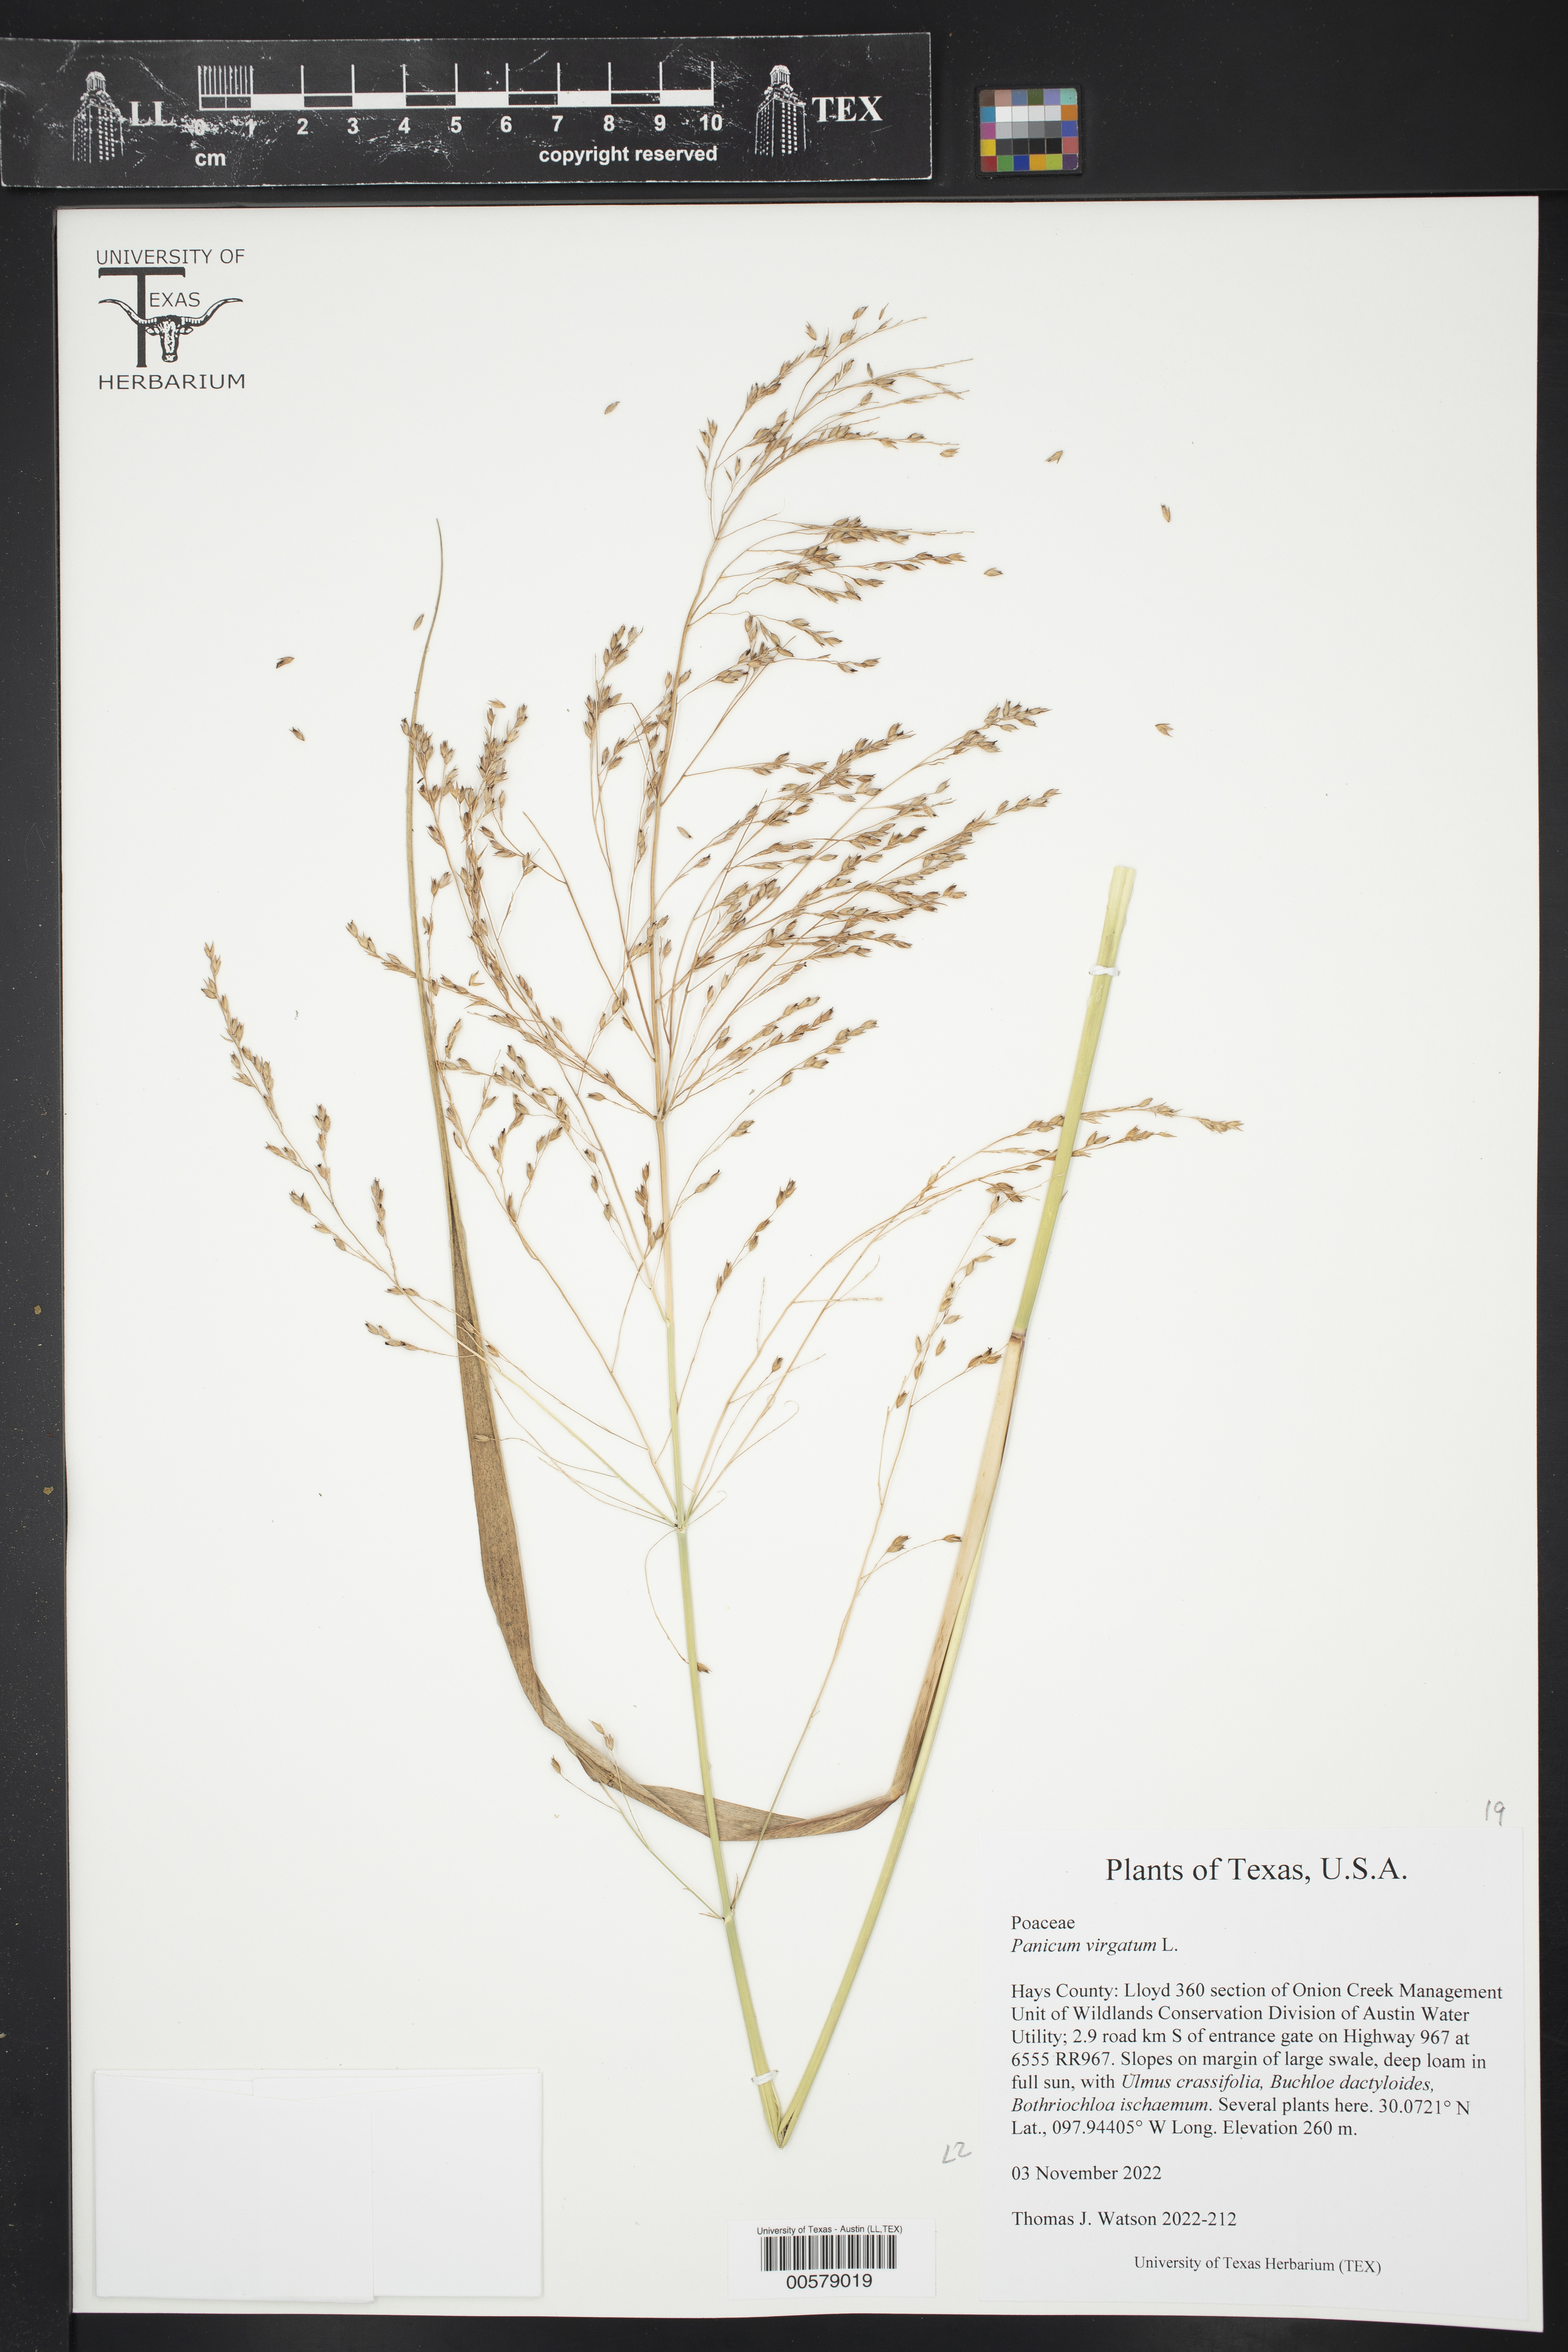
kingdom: Plantae
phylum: Tracheophyta
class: Liliopsida
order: Poales
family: Poaceae
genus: Panicum
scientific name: Panicum virgatum
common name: Switchgrass
